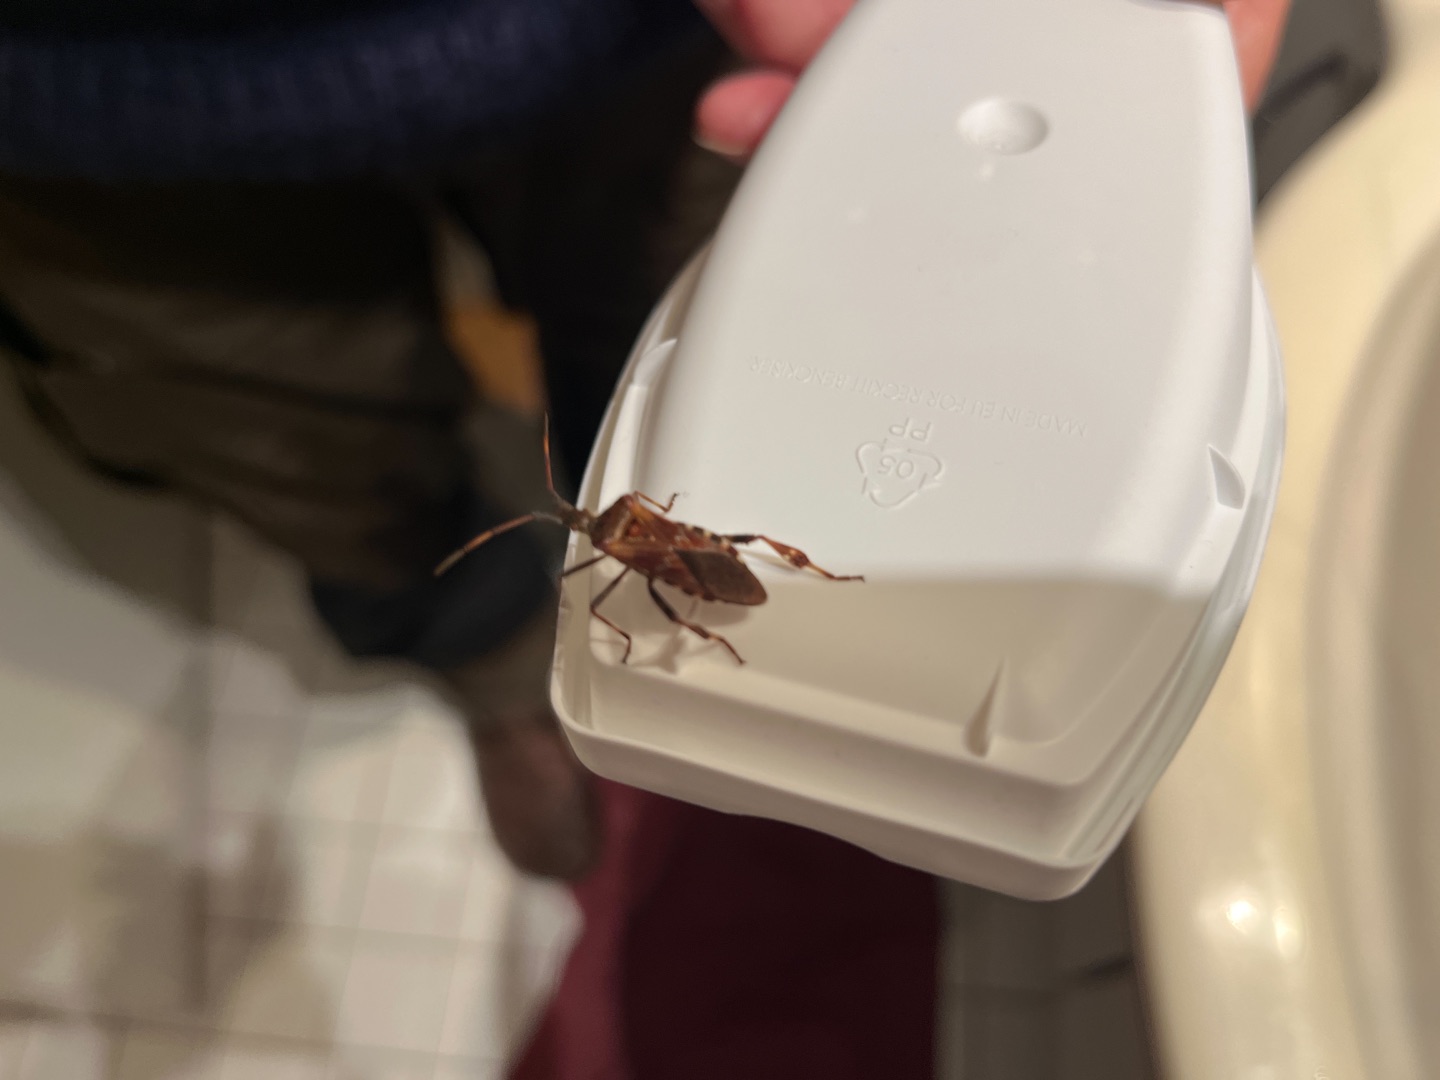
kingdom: Animalia
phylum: Arthropoda
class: Insecta
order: Hemiptera
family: Coreidae
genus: Leptoglossus
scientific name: Leptoglossus occidentalis
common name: Amerikansk fyrretæge
